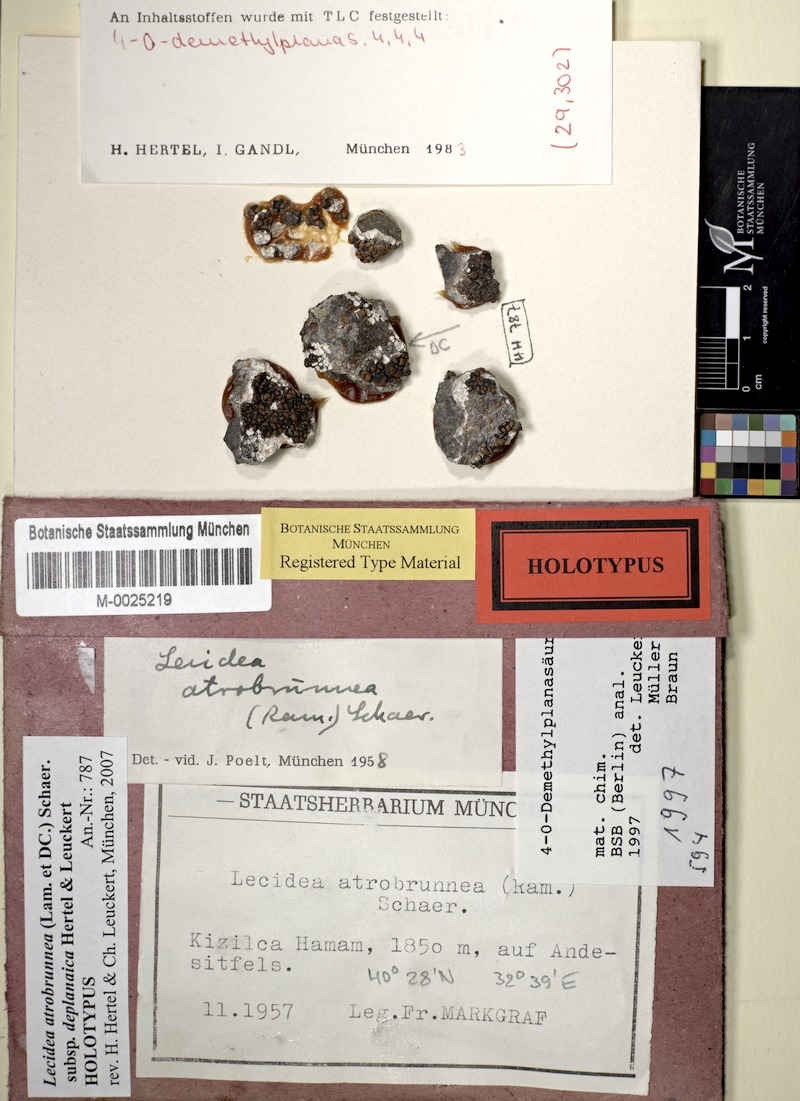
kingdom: Fungi
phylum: Ascomycota
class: Lecanoromycetes
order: Lecideales
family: Lecideaceae
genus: Lecidea
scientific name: Lecidea deplanaica
